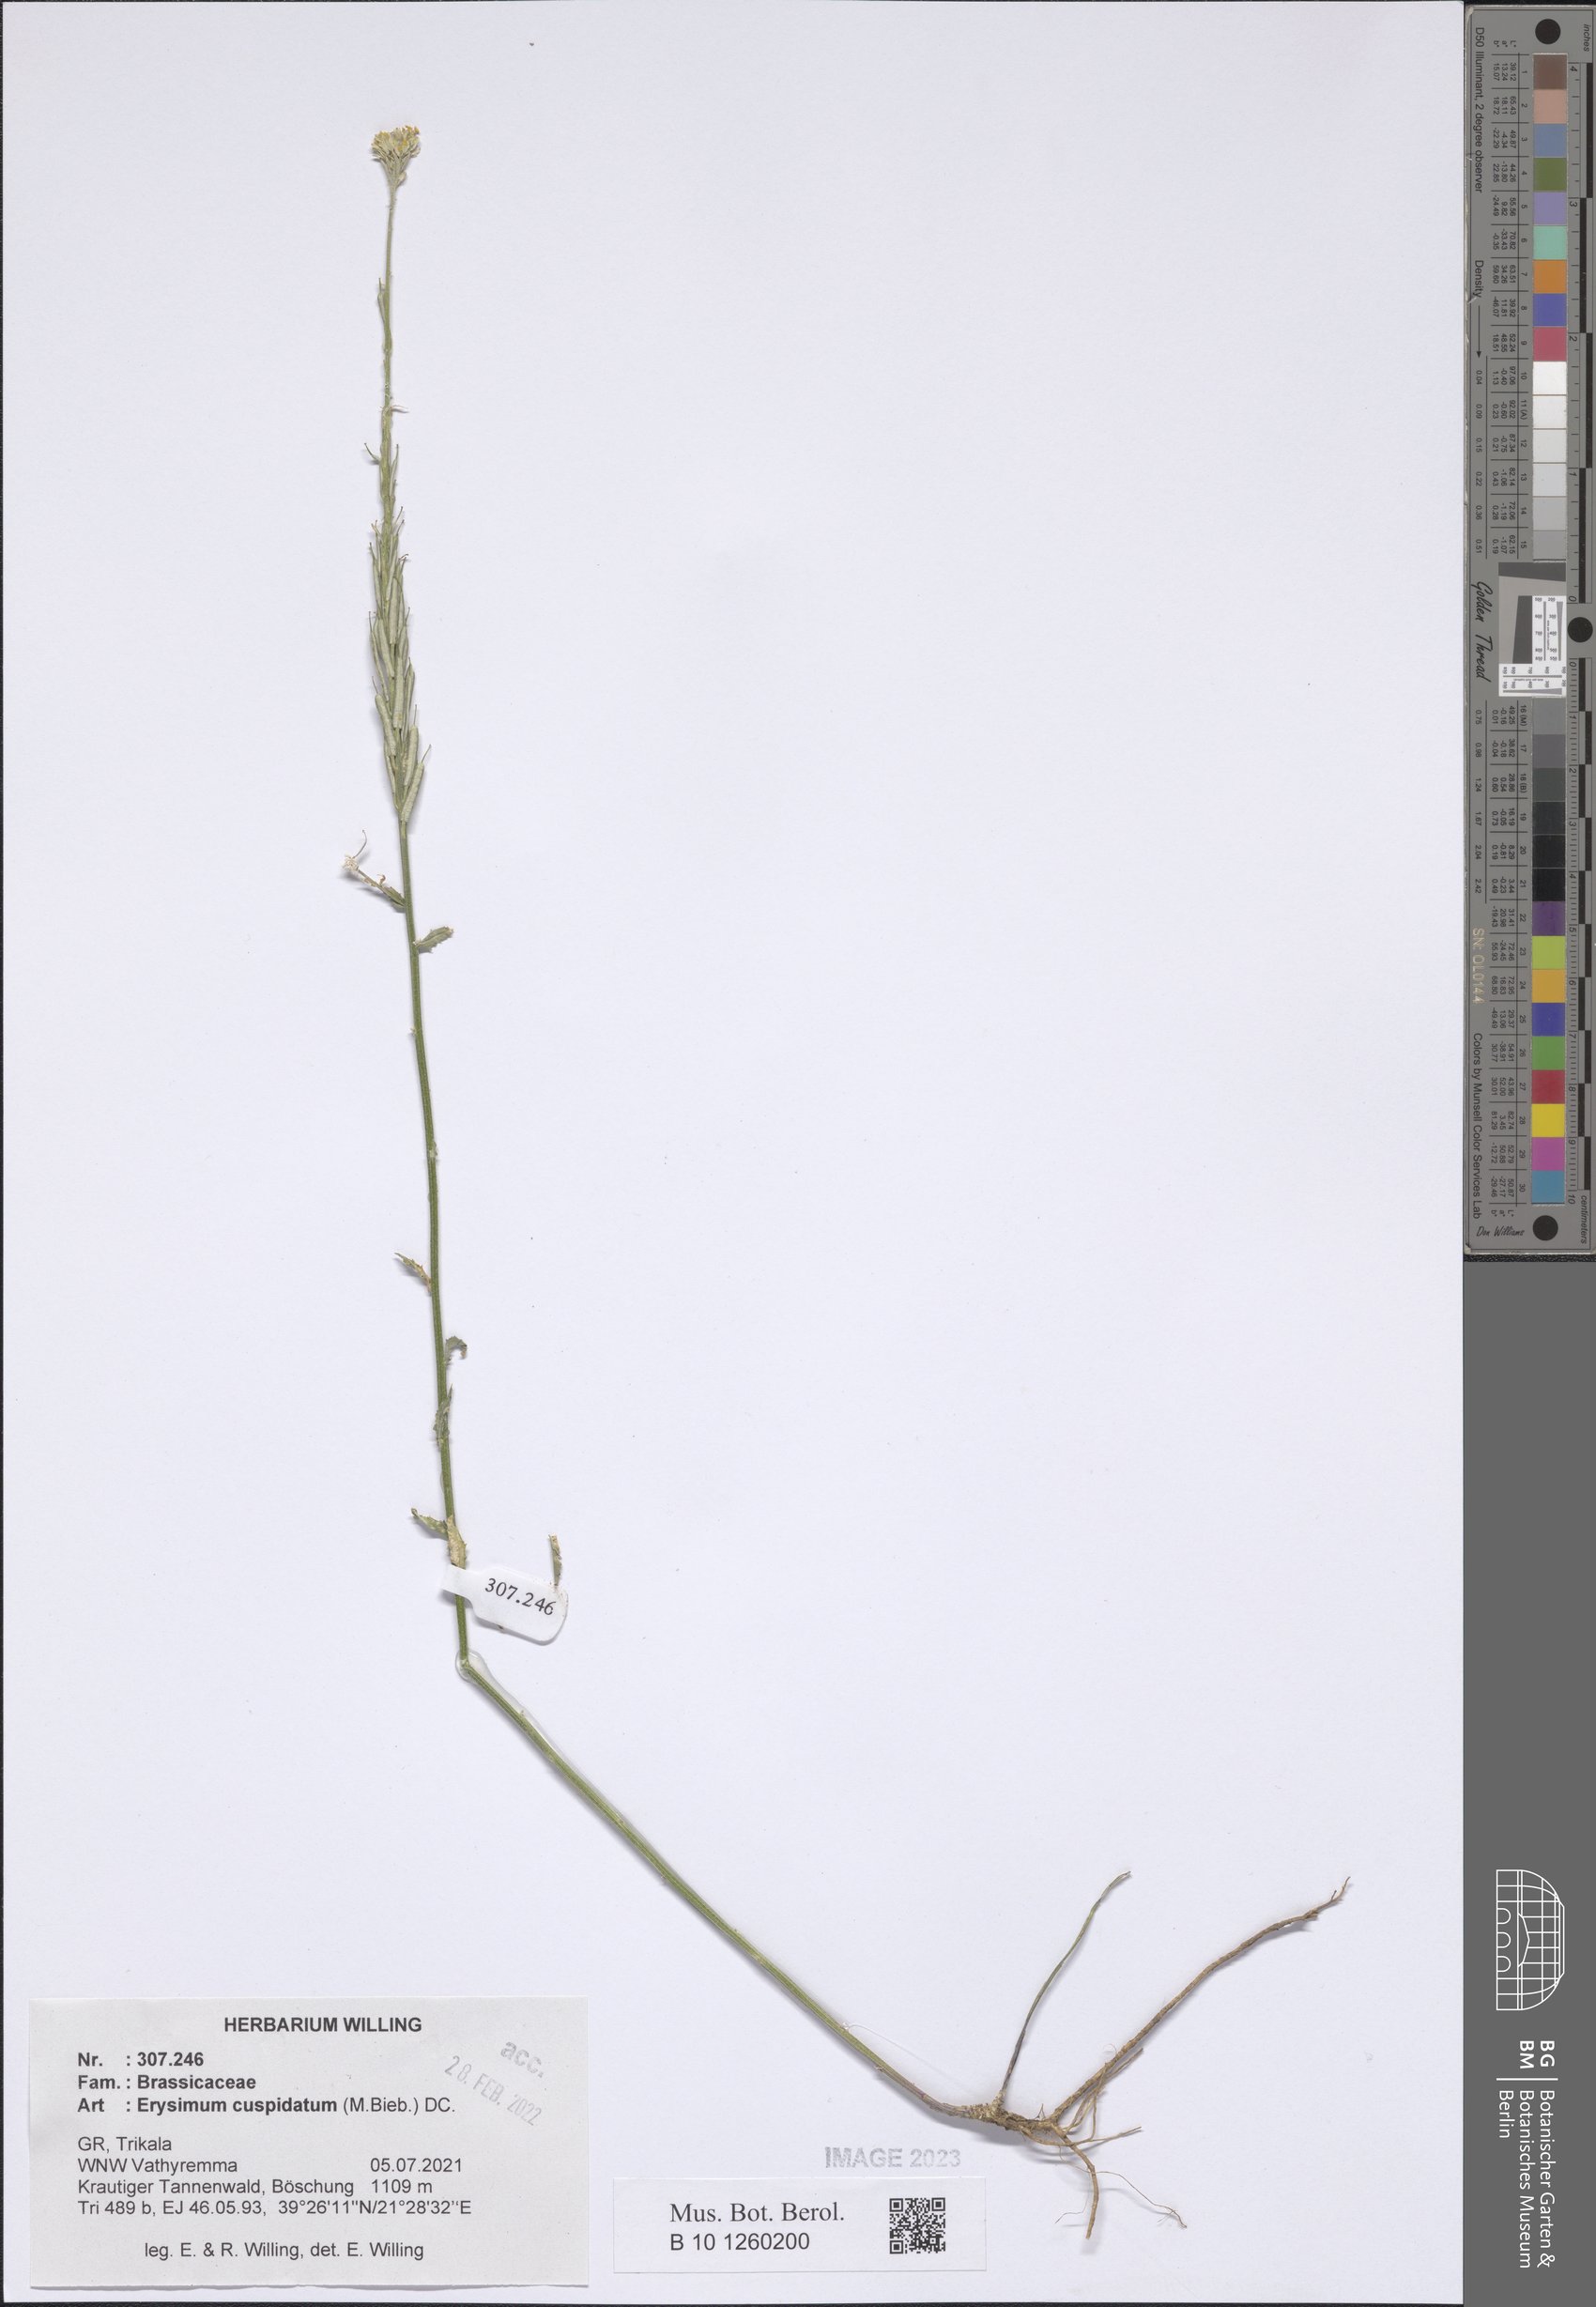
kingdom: Plantae
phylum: Tracheophyta
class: Magnoliopsida
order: Brassicales
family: Brassicaceae
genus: Erysimum
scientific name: Erysimum cuspidatum
